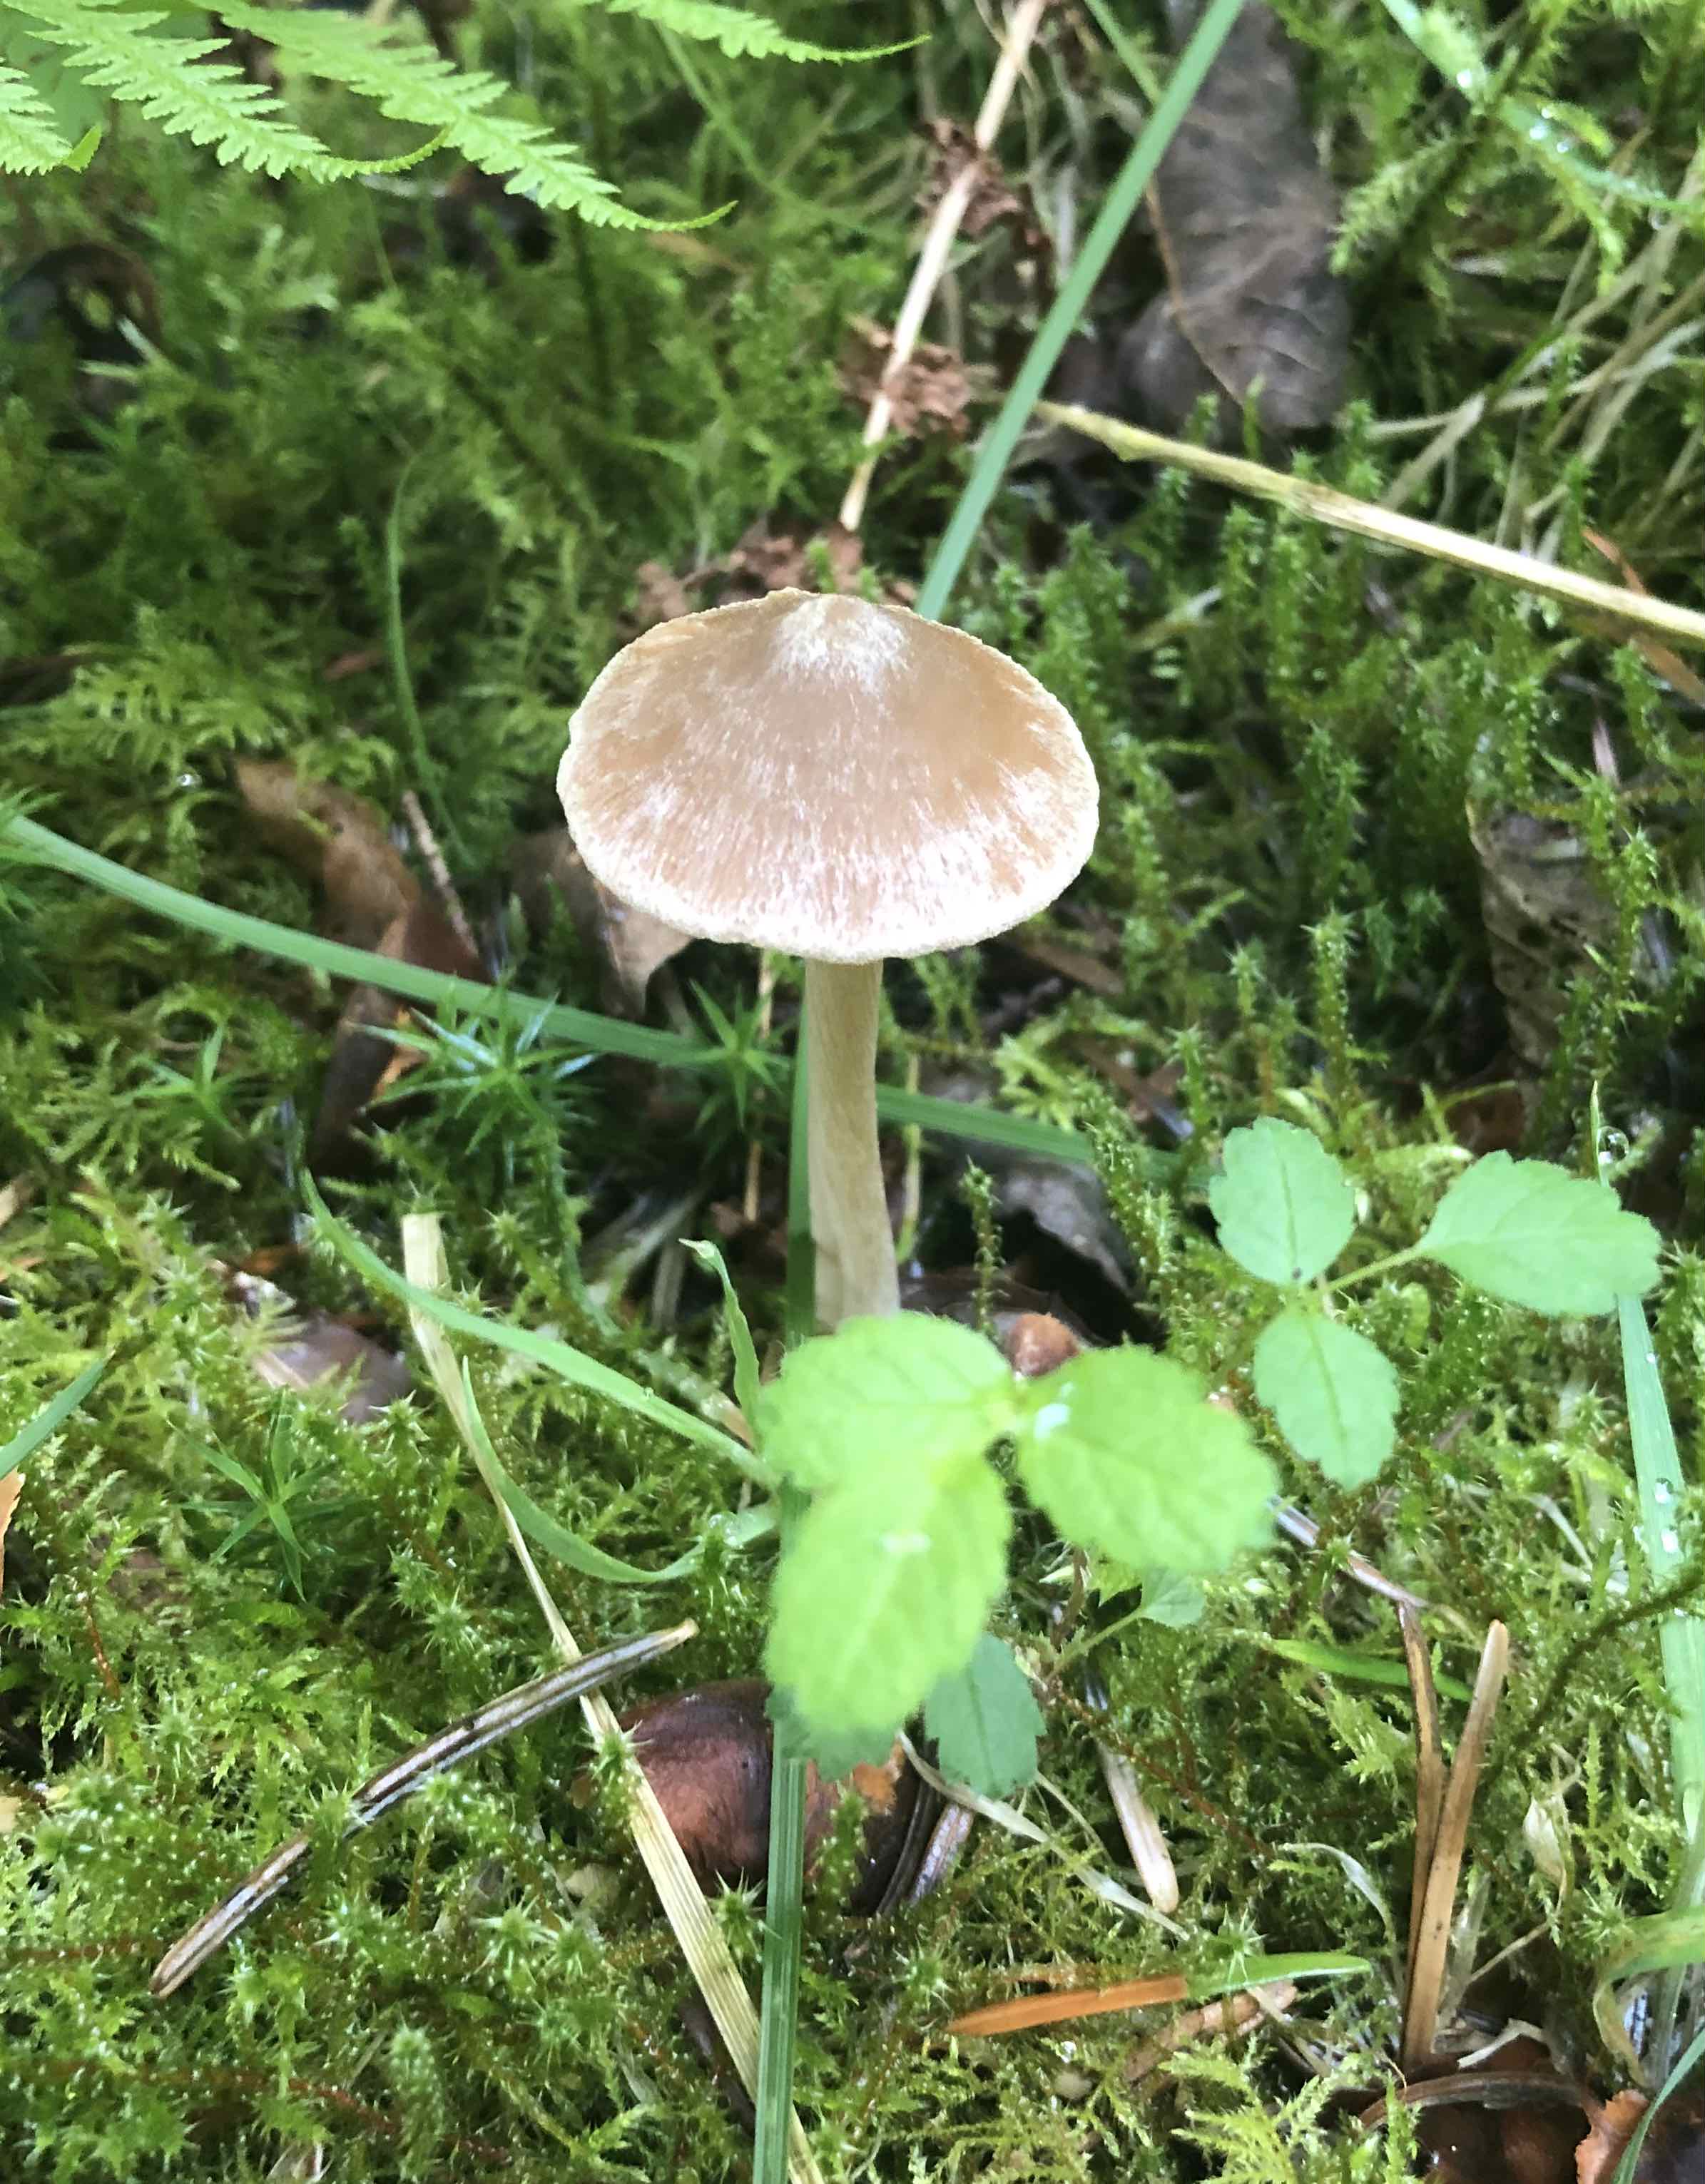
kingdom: Fungi
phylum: Basidiomycota
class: Agaricomycetes
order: Agaricales
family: Entolomataceae
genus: Entoloma
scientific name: Entoloma
